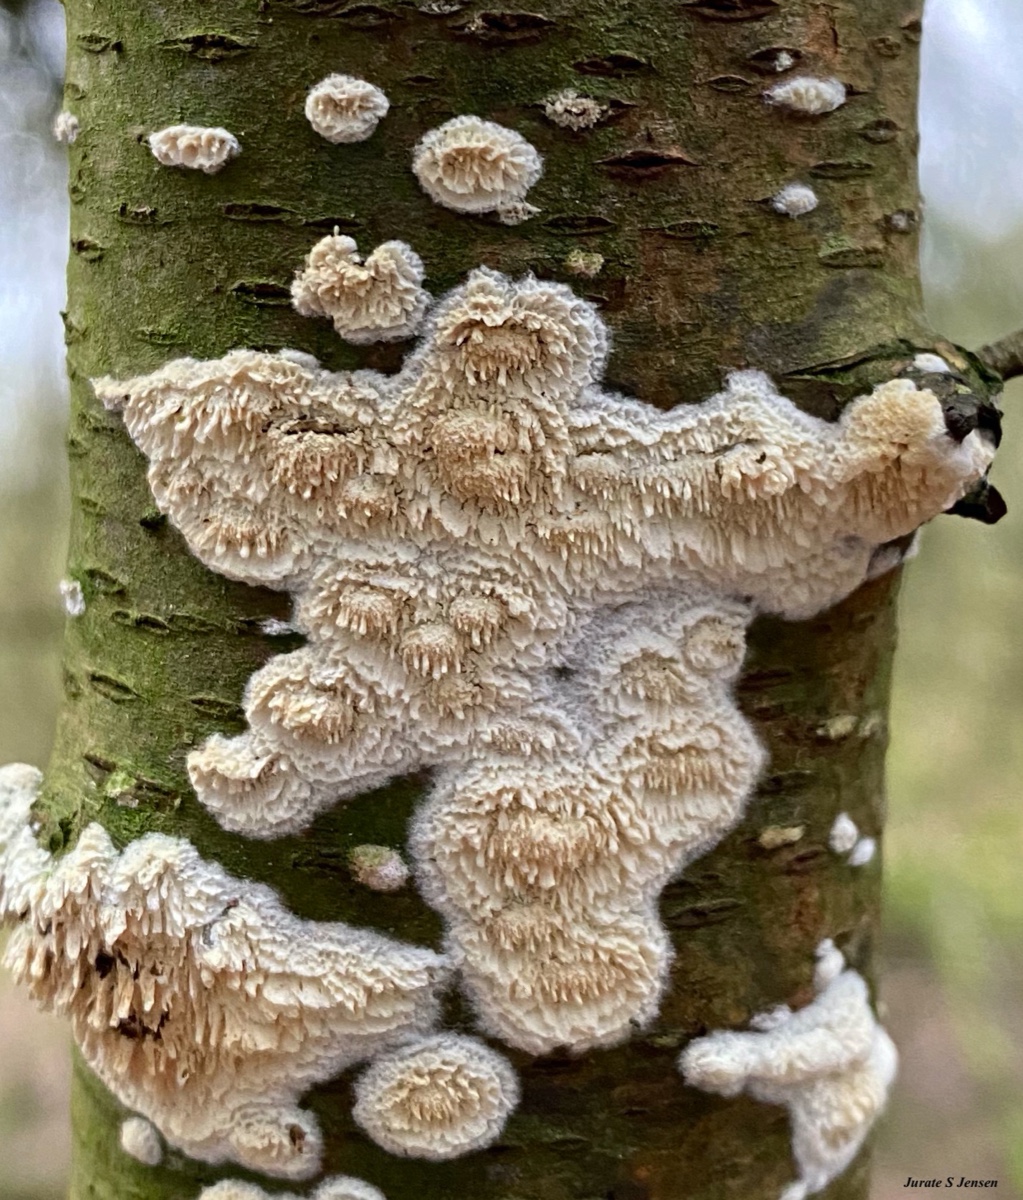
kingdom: Fungi
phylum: Basidiomycota
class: Agaricomycetes
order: Hymenochaetales
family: Schizoporaceae
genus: Xylodon
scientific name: Xylodon radula
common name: grovtandet kalkskind
